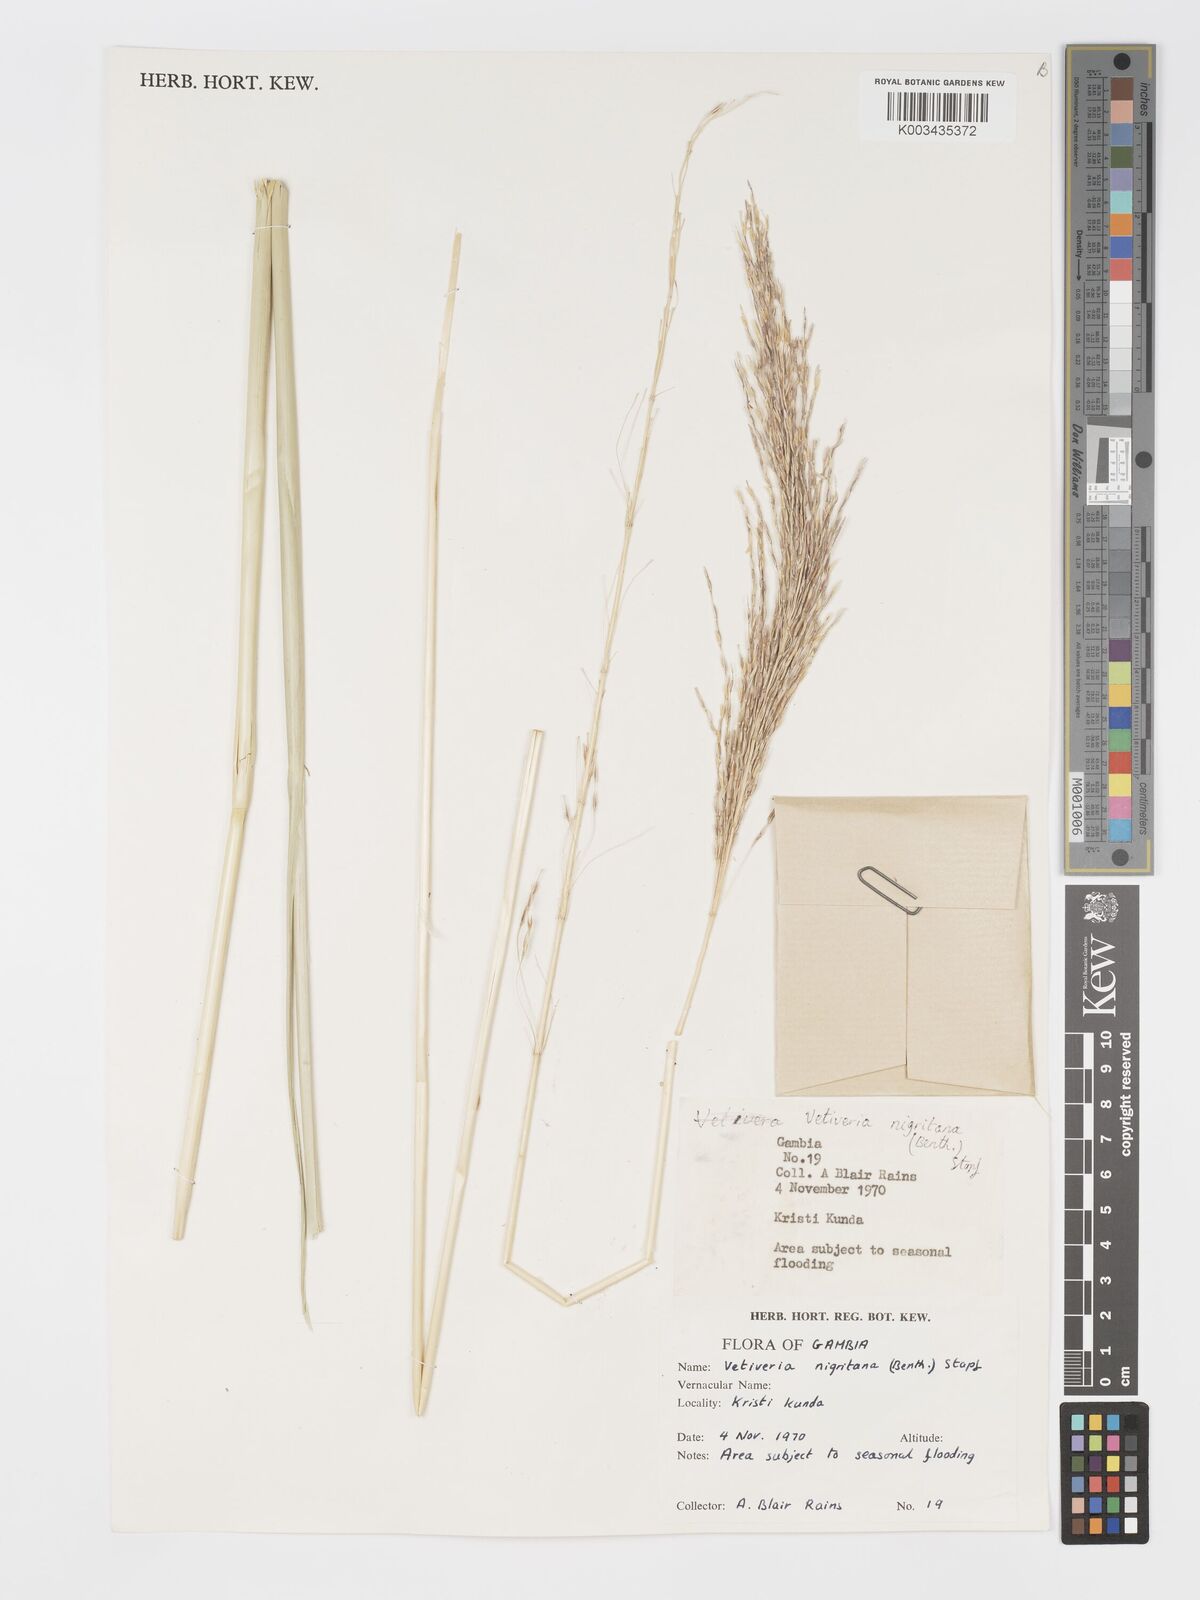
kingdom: Plantae
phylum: Tracheophyta
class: Liliopsida
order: Poales
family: Poaceae
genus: Chrysopogon
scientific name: Chrysopogon nigritanus
